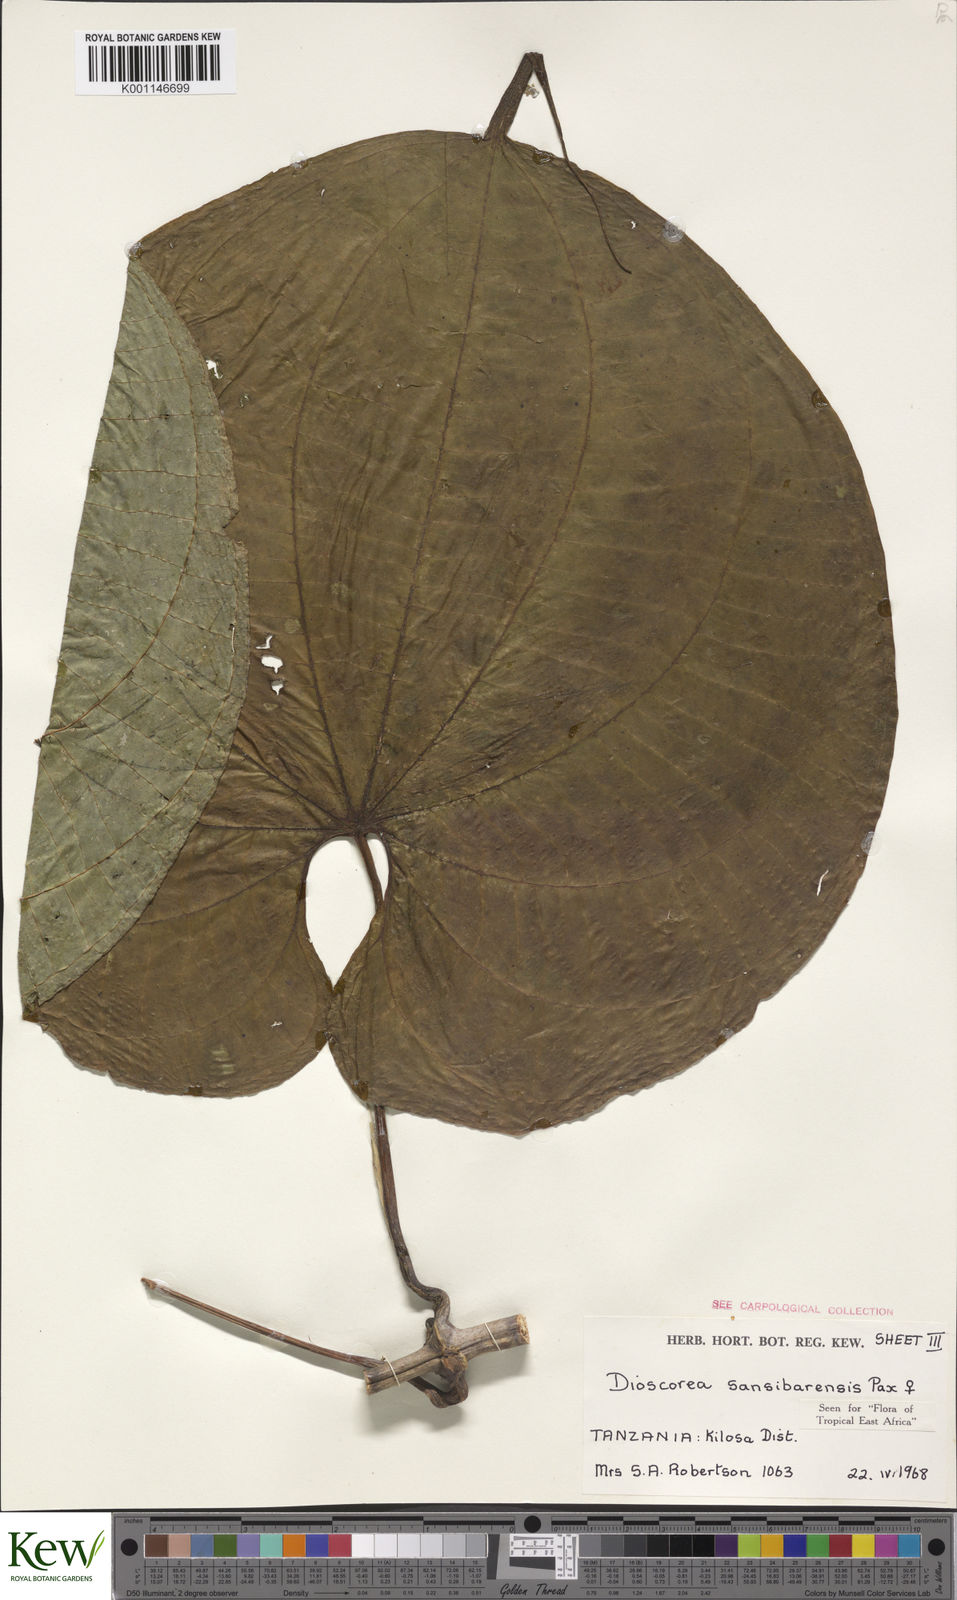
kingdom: Plantae
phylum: Tracheophyta
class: Liliopsida
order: Dioscoreales
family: Dioscoreaceae
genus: Dioscorea
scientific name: Dioscorea sansibarensis
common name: Zanzibar yam
